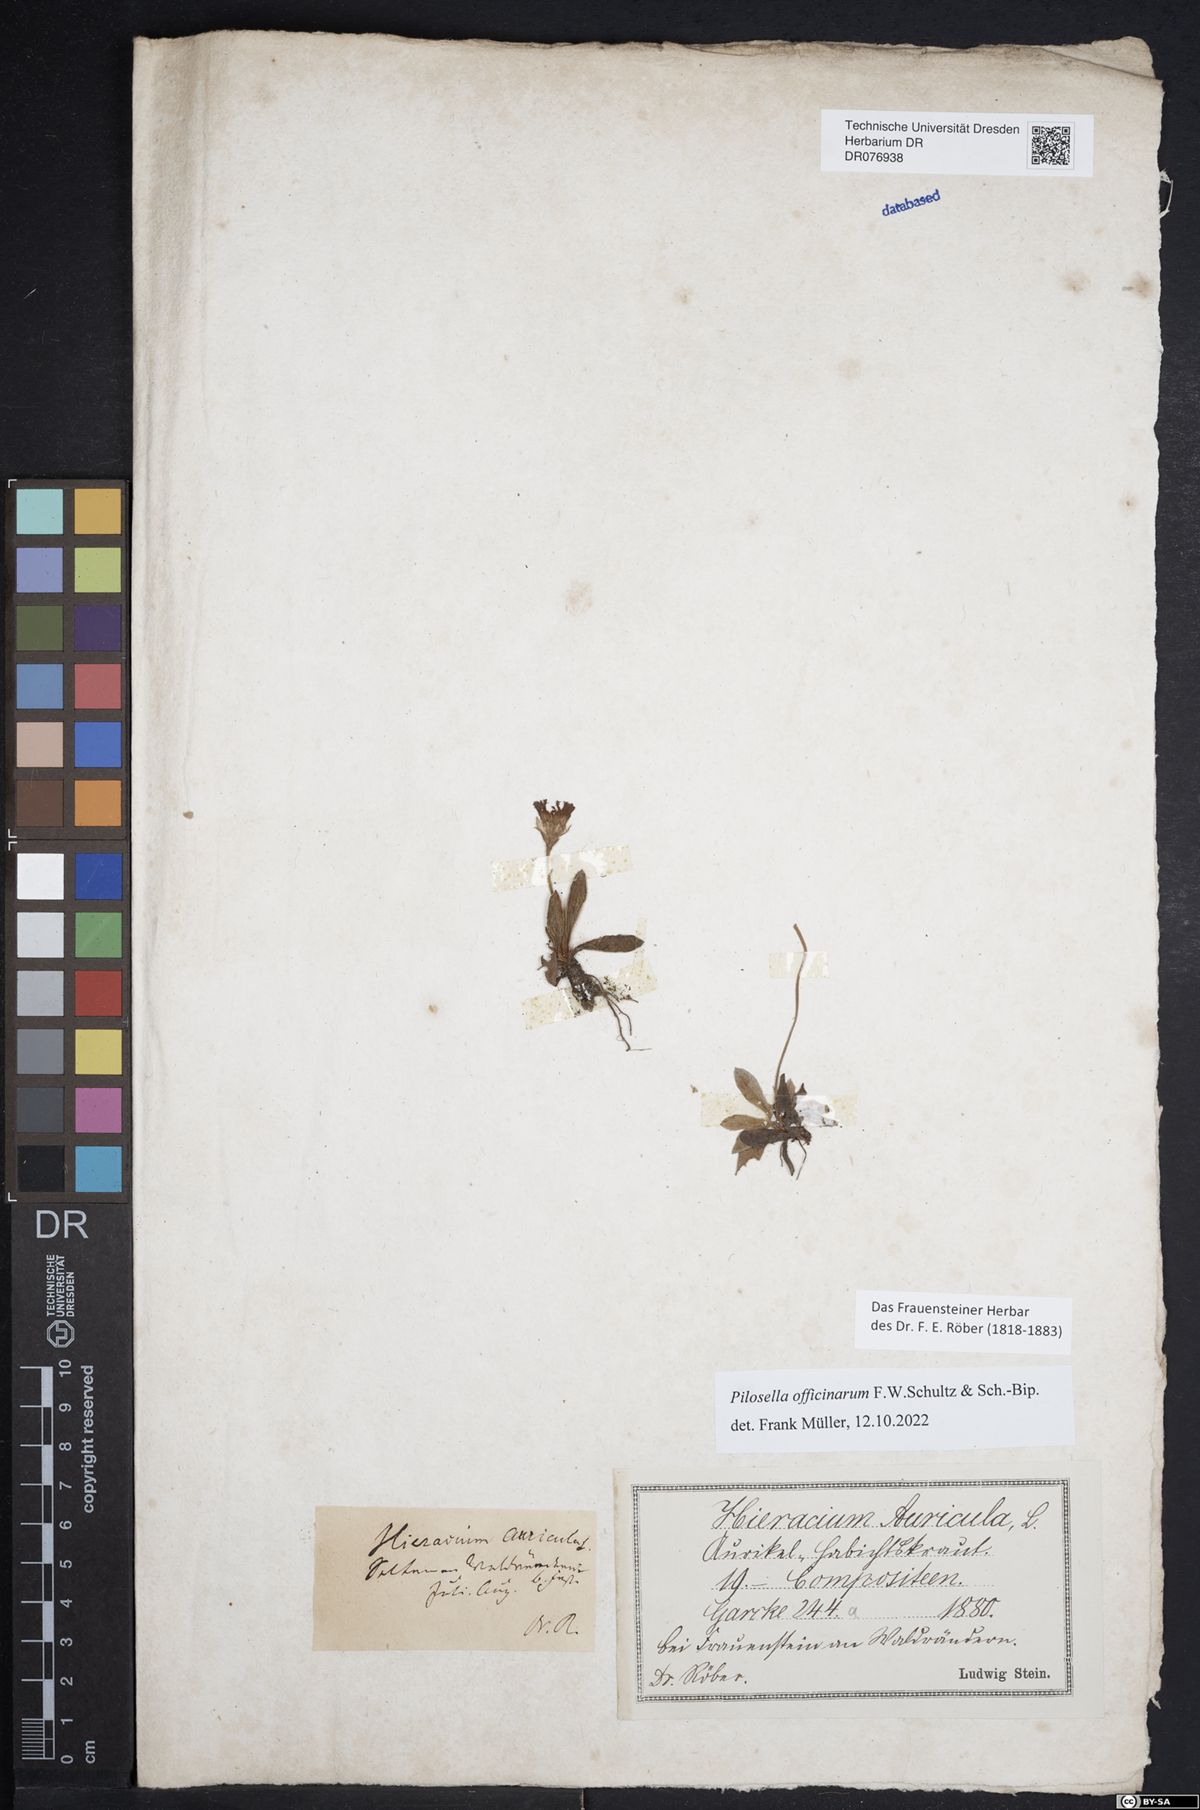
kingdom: Plantae
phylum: Tracheophyta
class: Magnoliopsida
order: Asterales
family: Asteraceae
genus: Pilosella
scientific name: Pilosella officinarum
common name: Mouse-ear hawkweed
